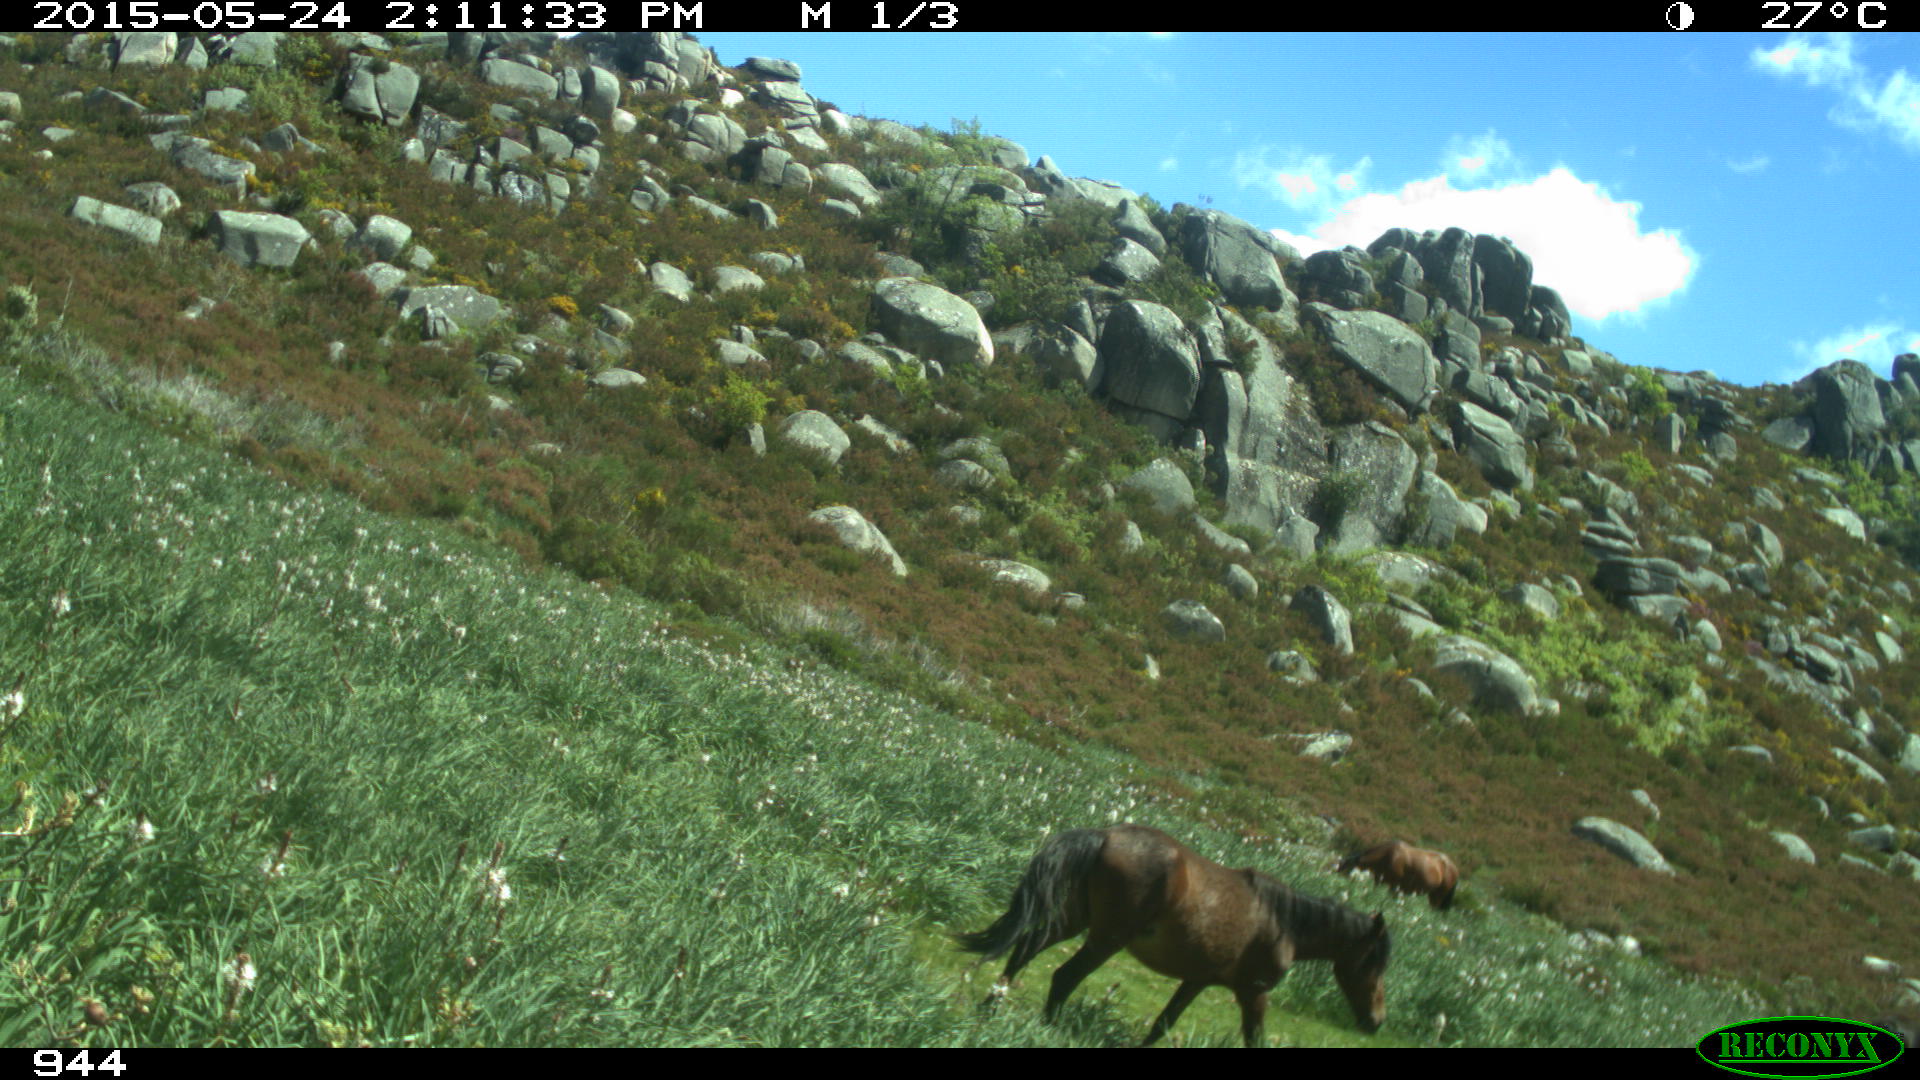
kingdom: Animalia
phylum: Chordata
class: Mammalia
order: Perissodactyla
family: Equidae
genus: Equus
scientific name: Equus caballus
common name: Horse
